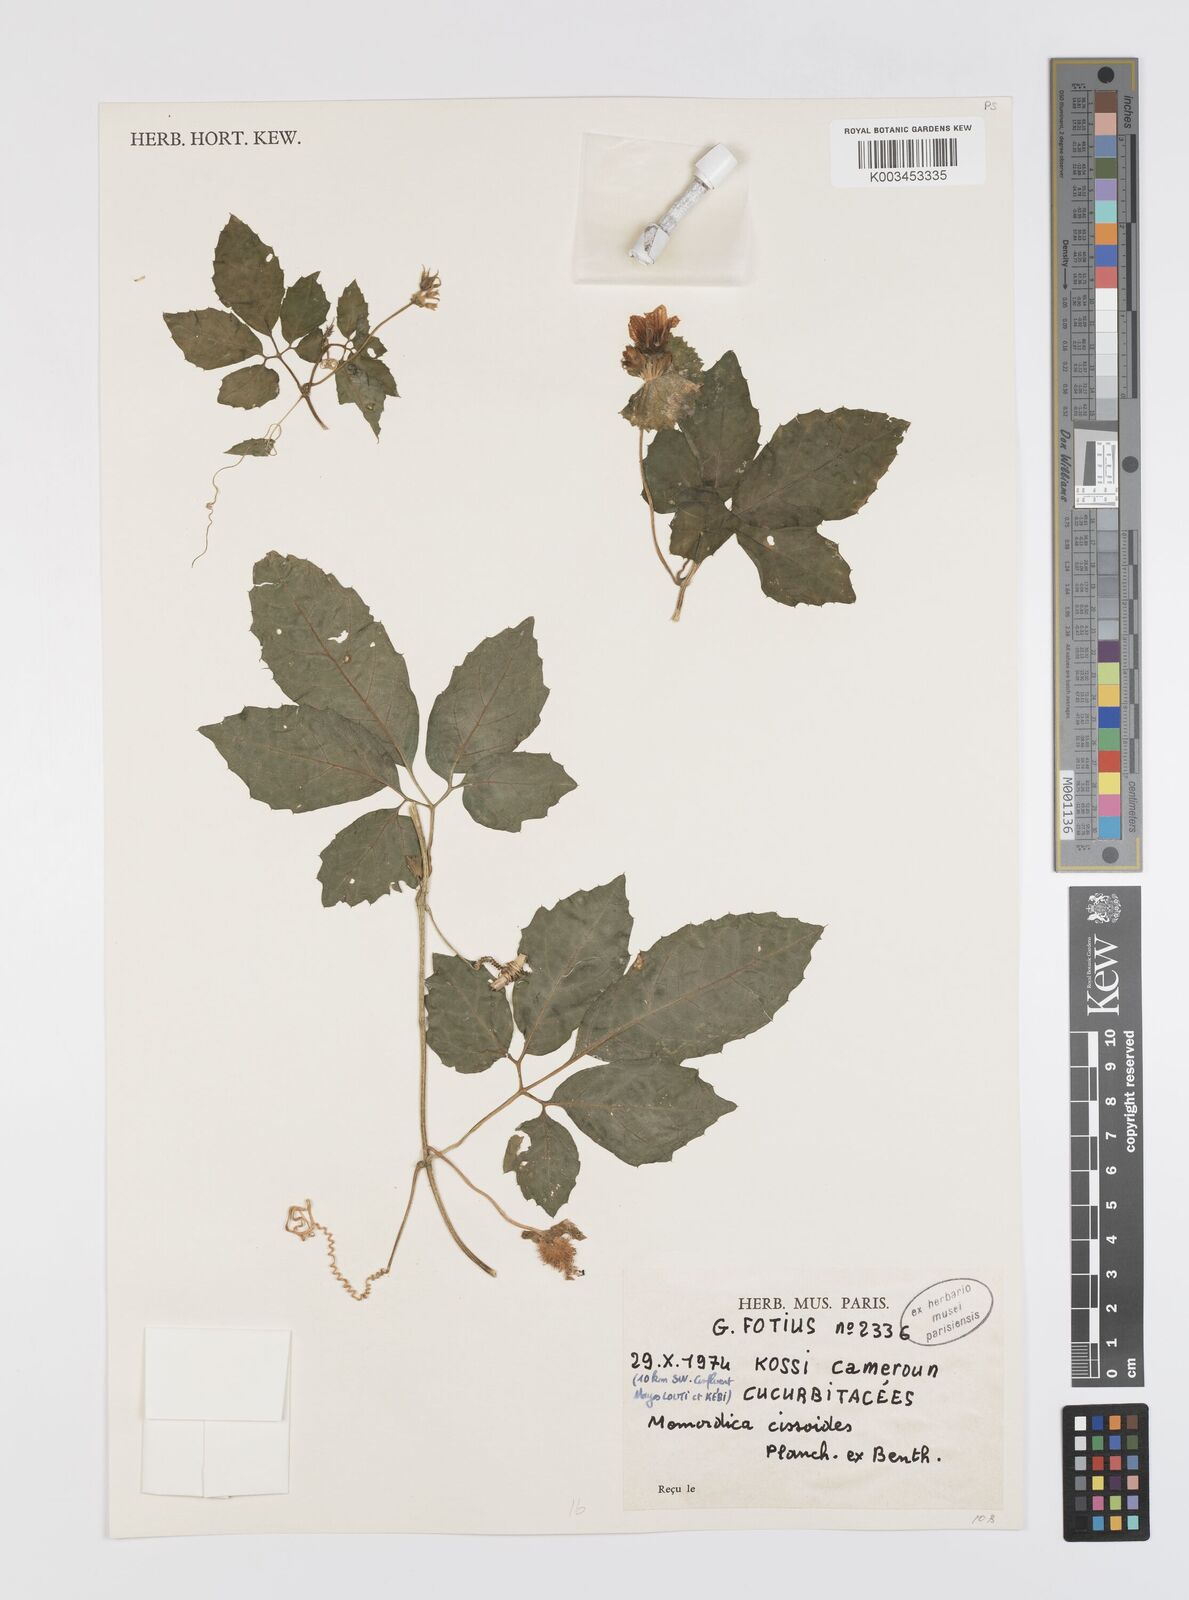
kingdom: Plantae
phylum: Tracheophyta
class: Magnoliopsida
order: Cucurbitales
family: Cucurbitaceae
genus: Momordica
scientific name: Momordica cissoides
